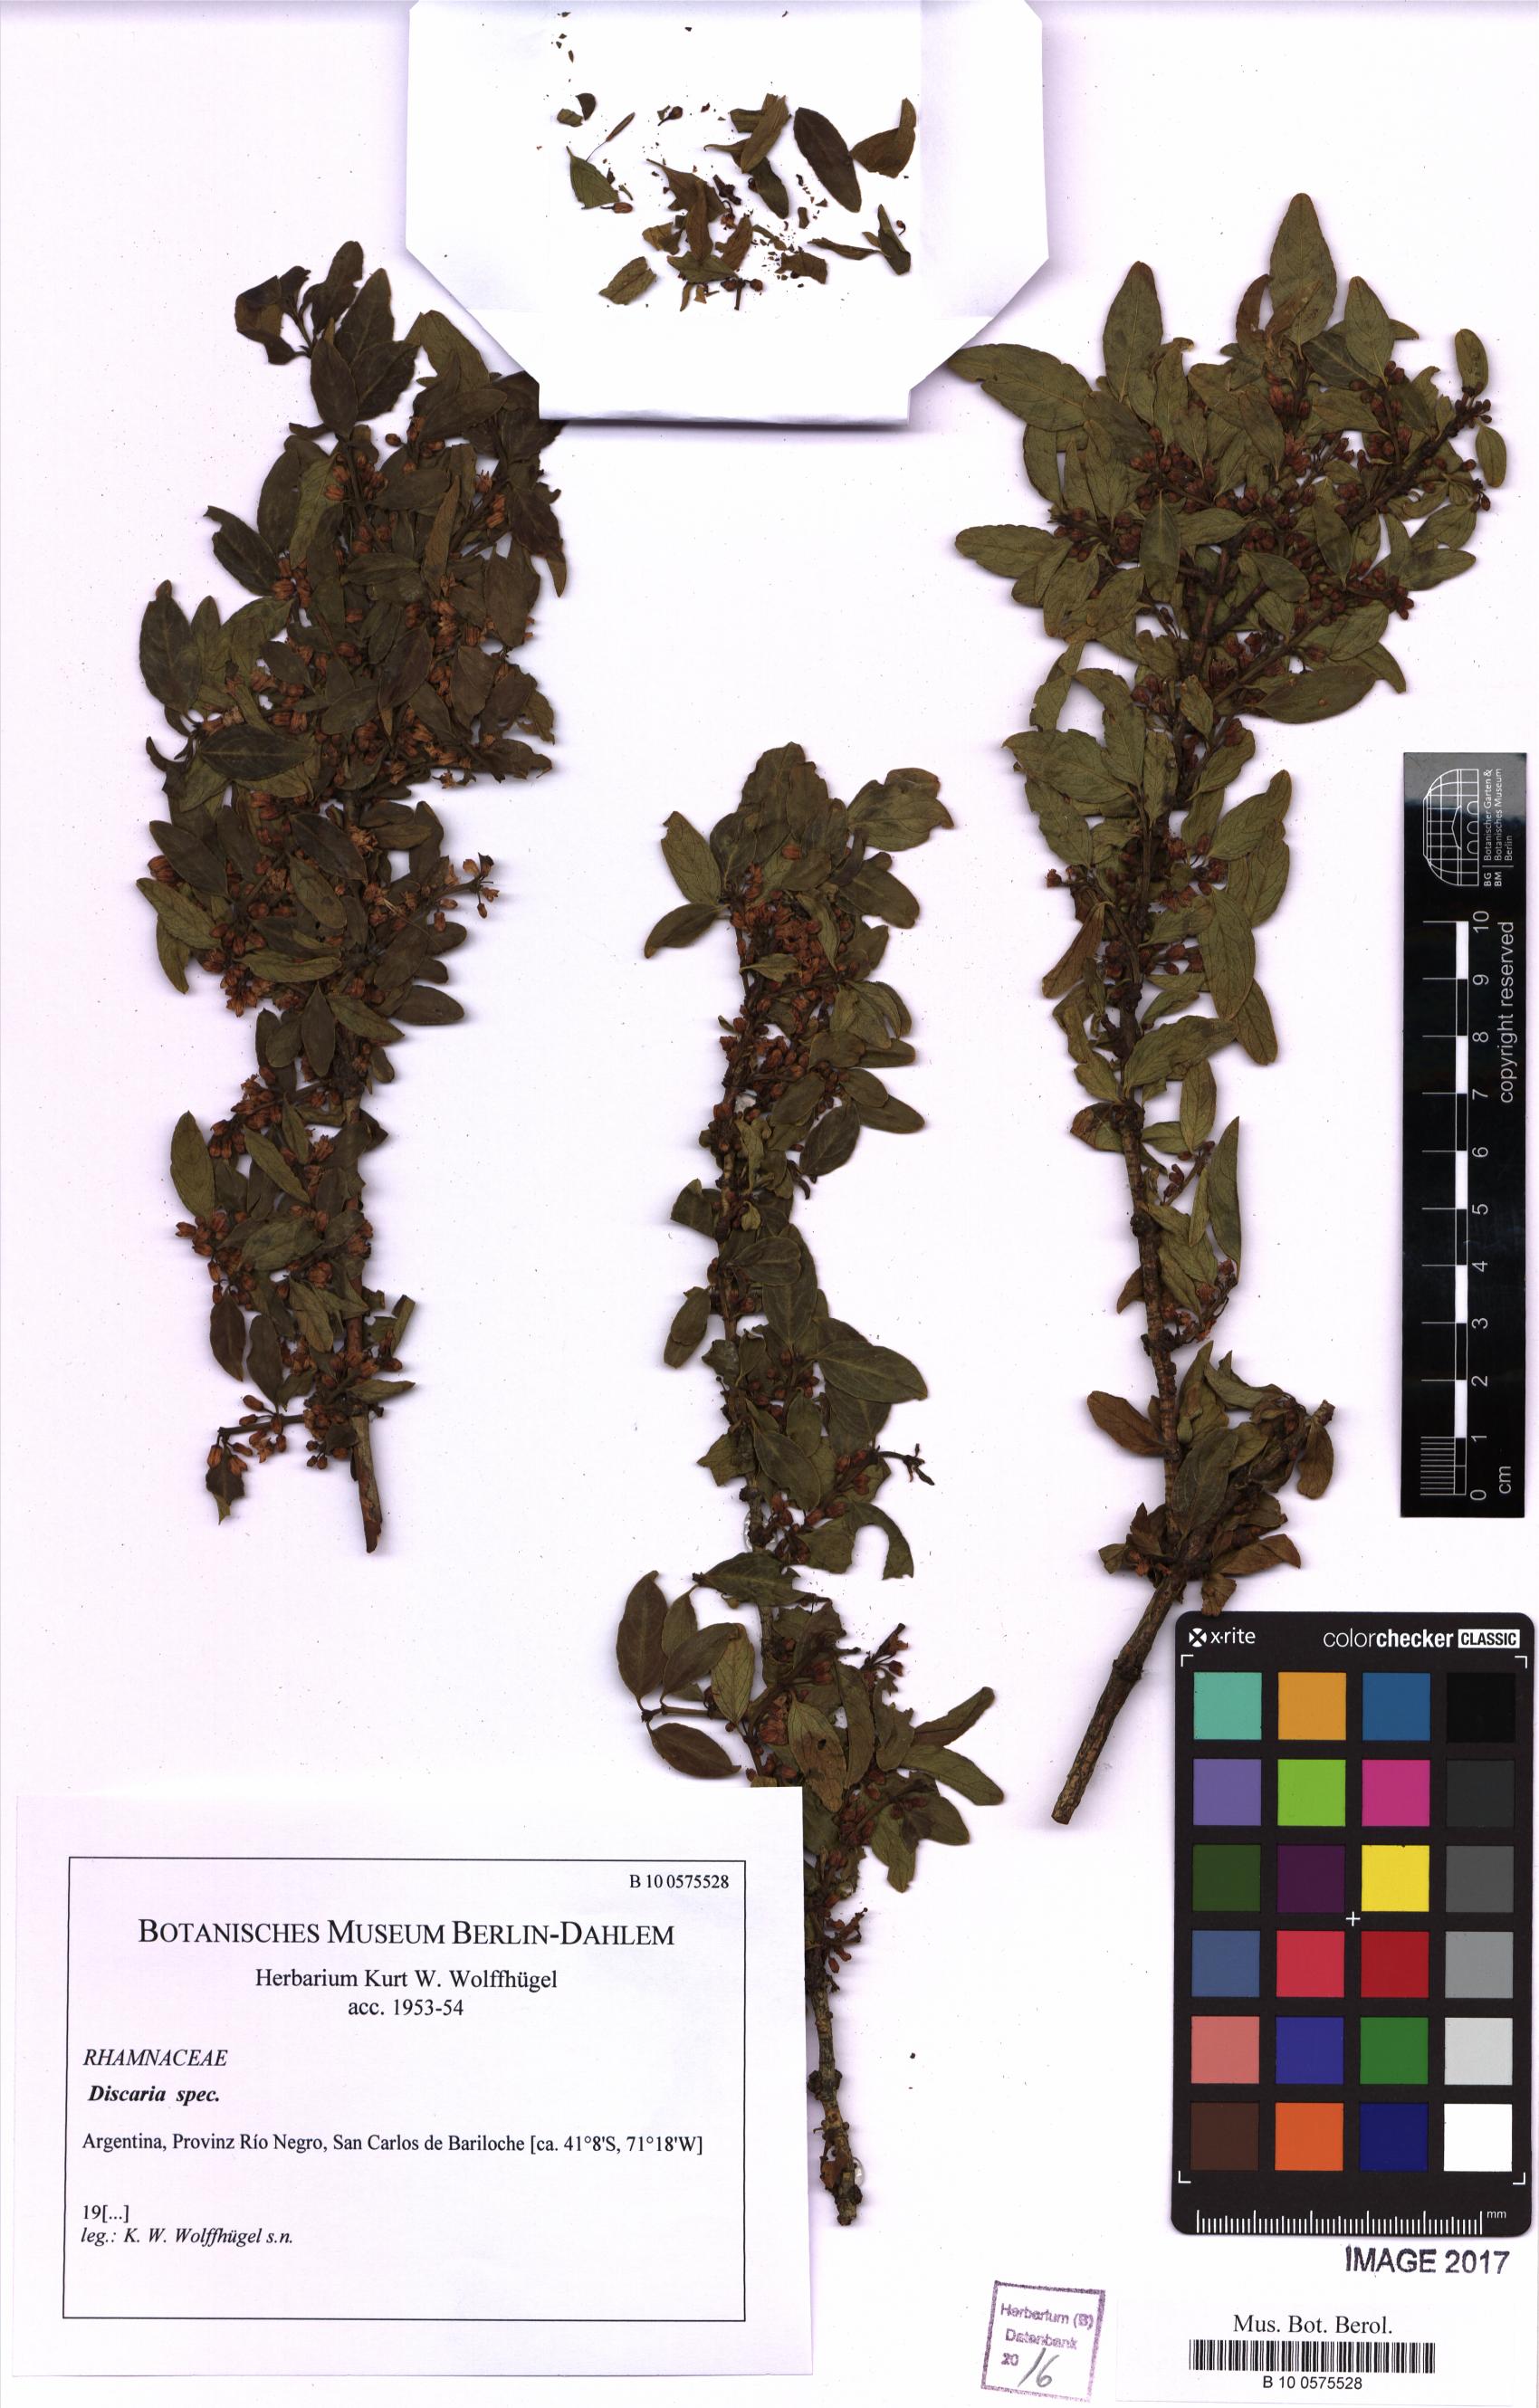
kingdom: Plantae
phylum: Tracheophyta
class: Magnoliopsida
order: Rosales
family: Rhamnaceae
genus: Discaria
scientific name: Discaria
